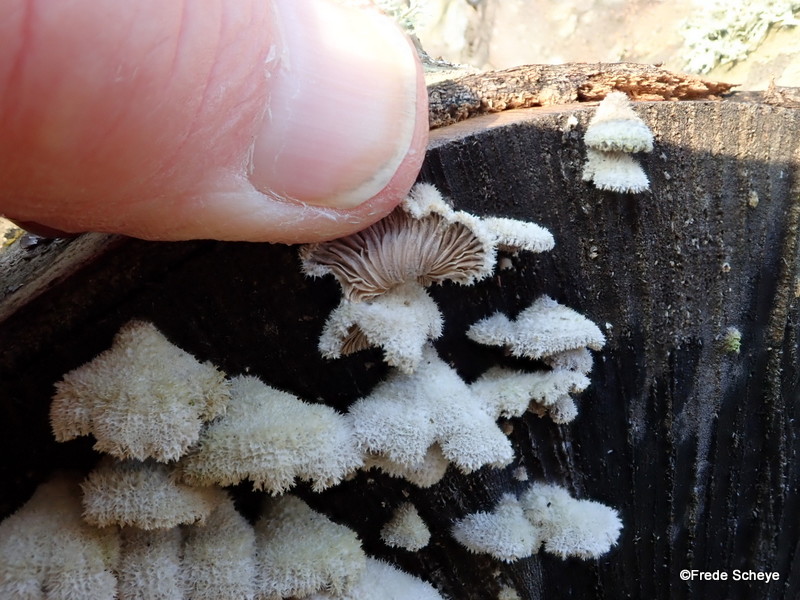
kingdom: Fungi
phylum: Basidiomycota
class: Agaricomycetes
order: Agaricales
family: Schizophyllaceae
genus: Schizophyllum
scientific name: Schizophyllum commune
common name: kløvblad
